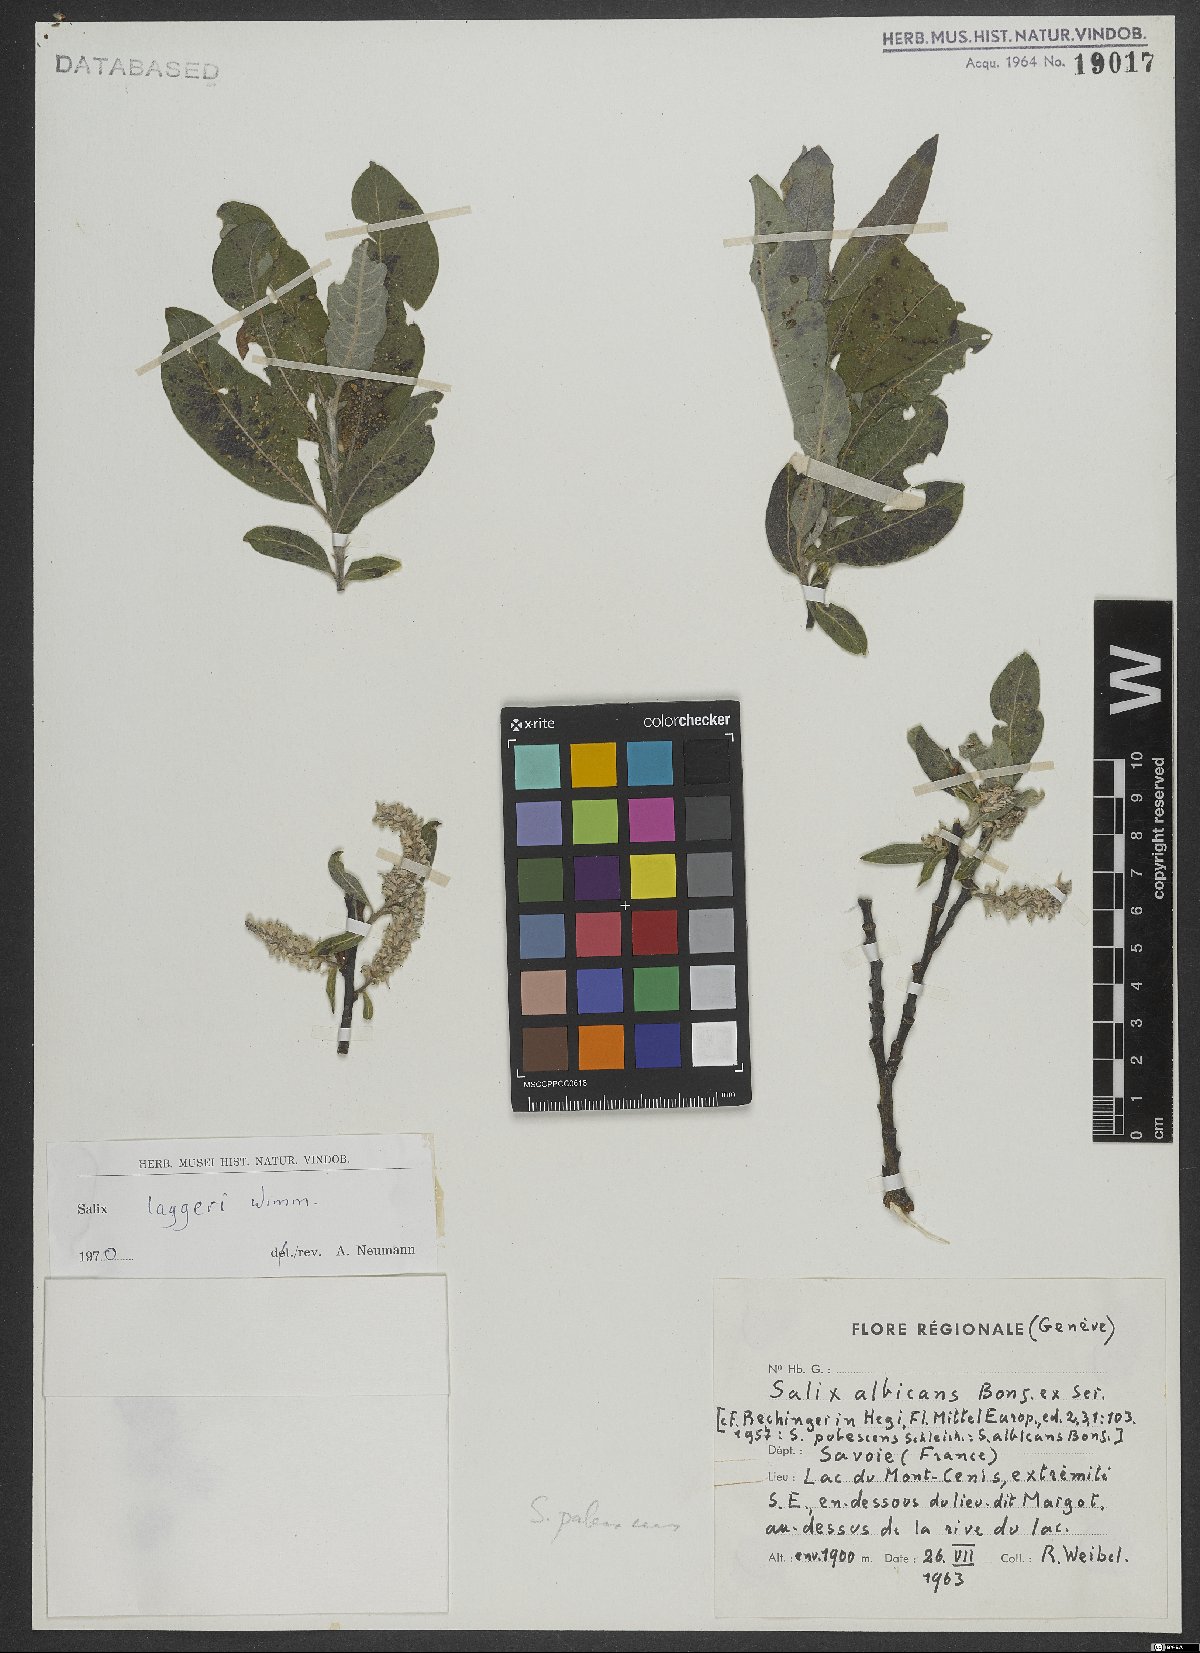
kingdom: Plantae
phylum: Tracheophyta
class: Magnoliopsida
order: Malpighiales
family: Salicaceae
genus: Salix
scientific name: Salix laggeri
